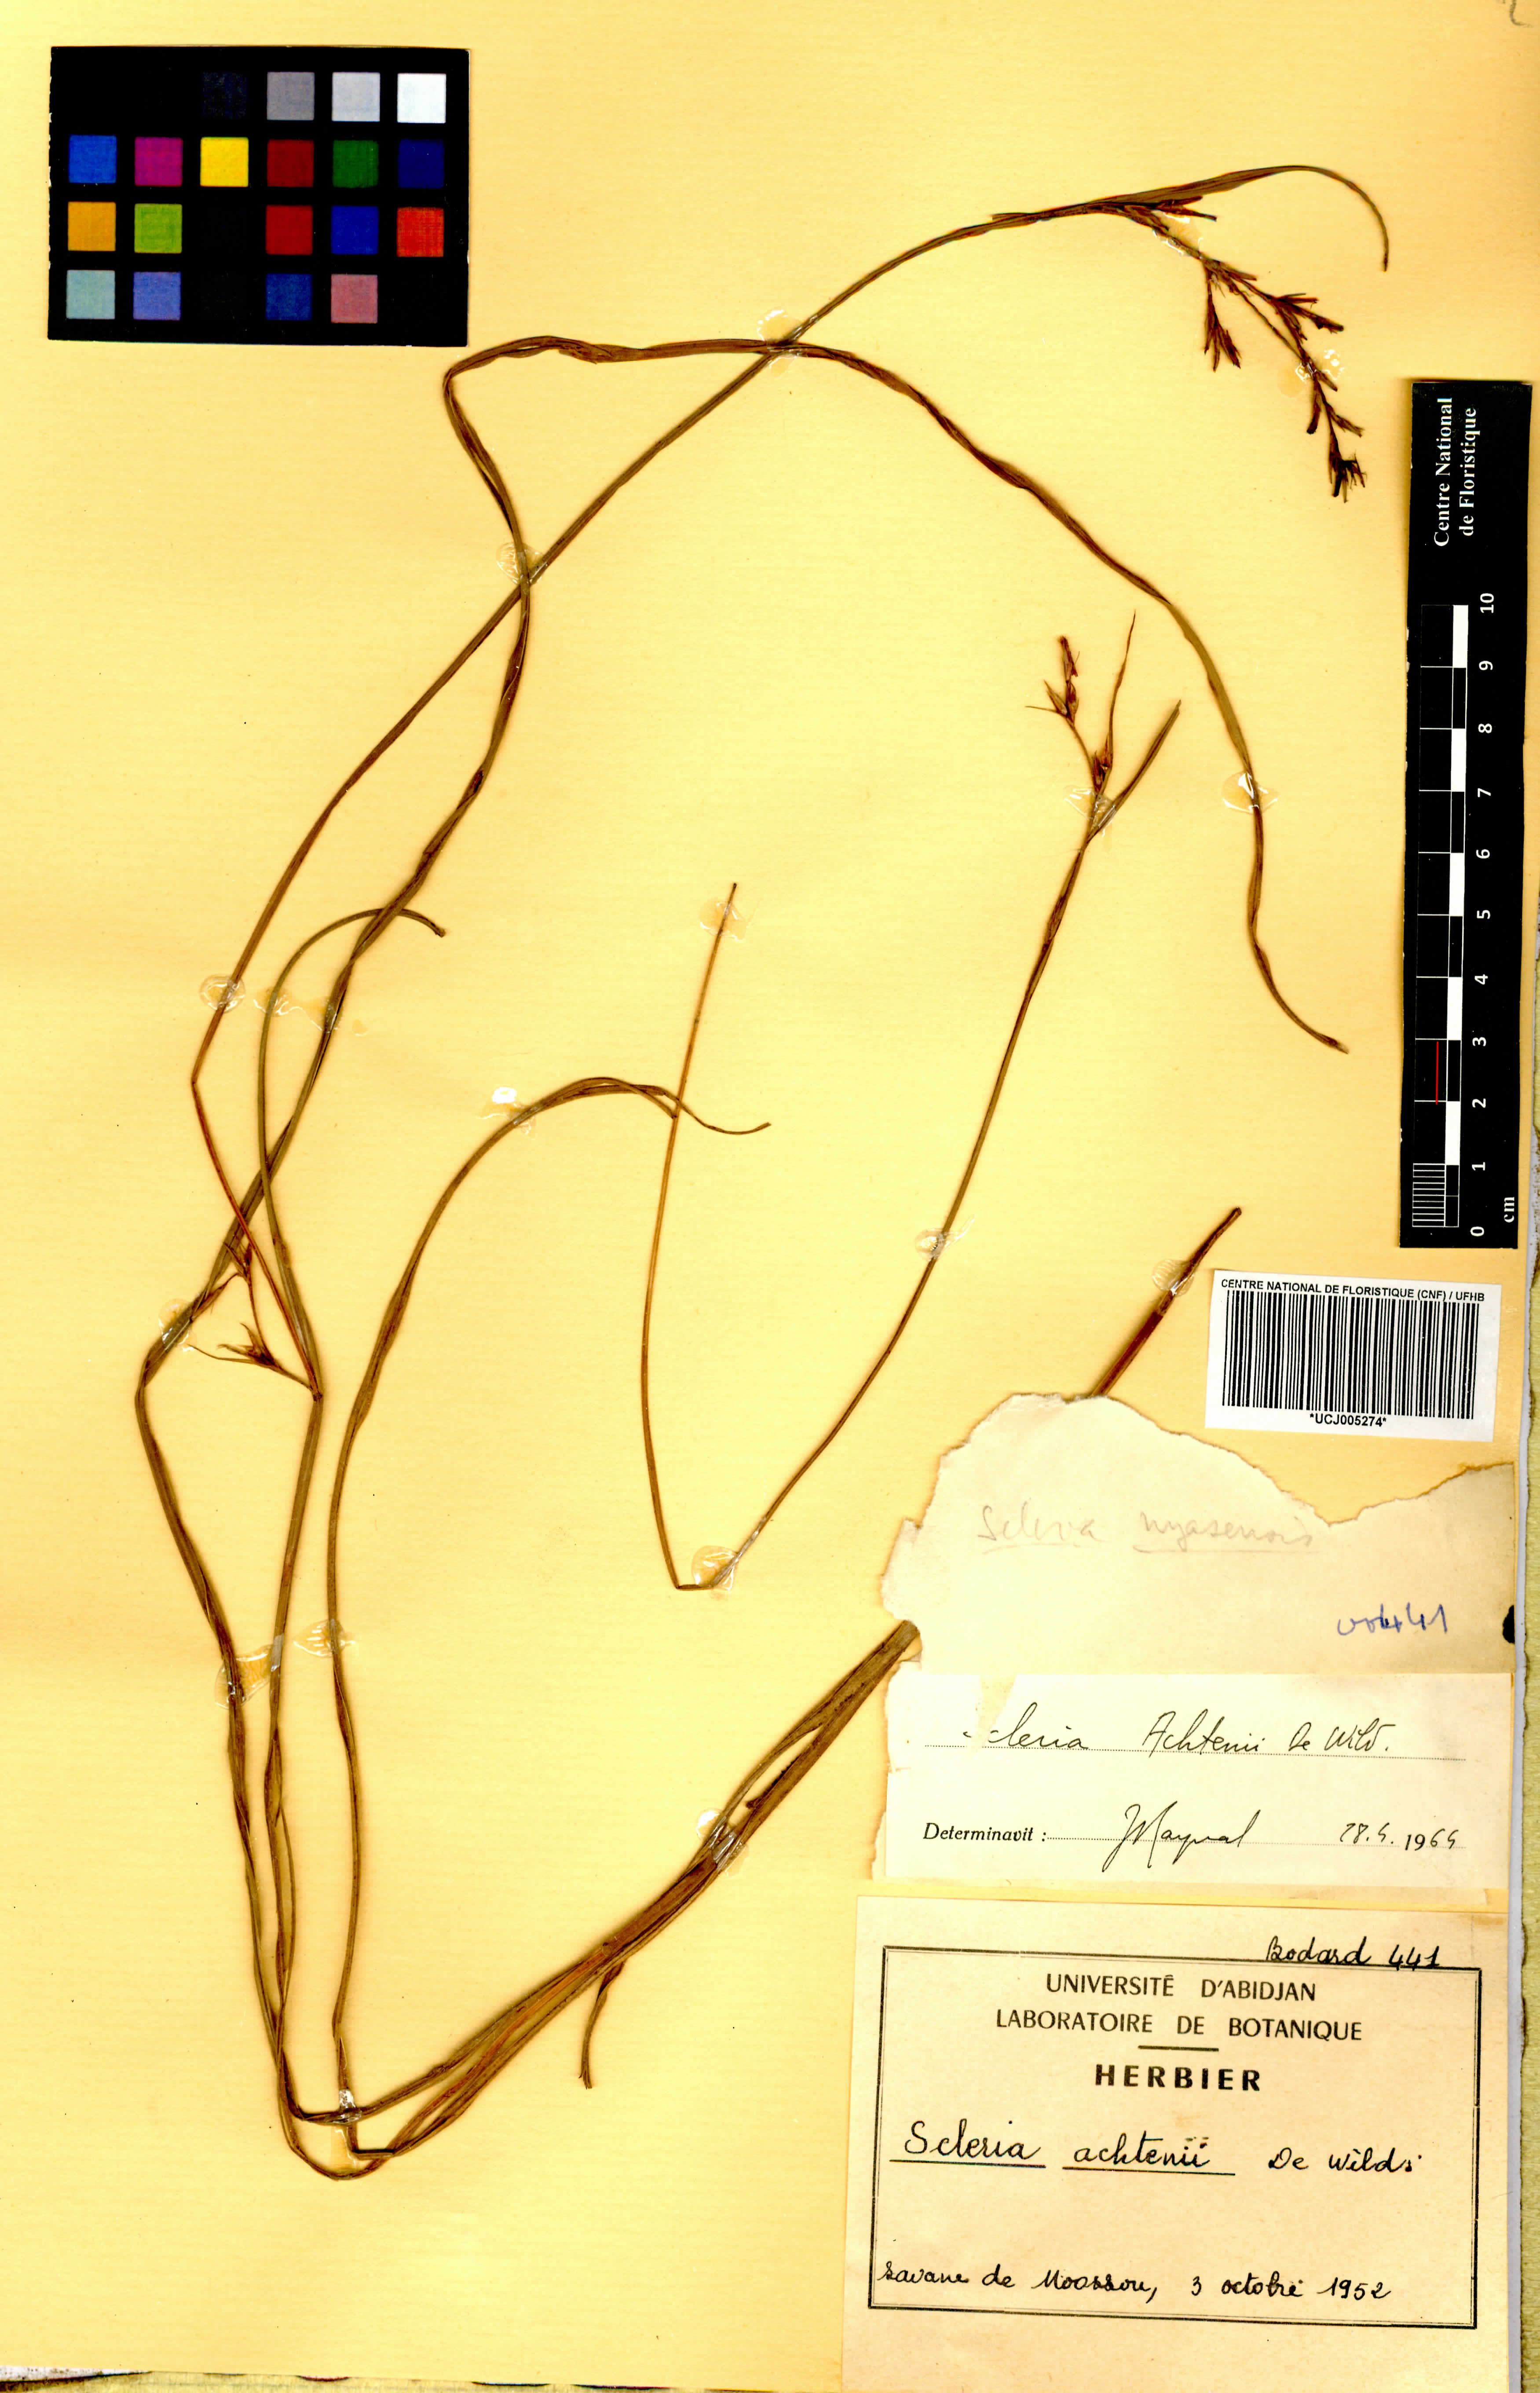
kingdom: Plantae
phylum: Tracheophyta
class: Liliopsida
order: Poales
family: Cyperaceae
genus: Scleria
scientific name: Scleria achtenii
